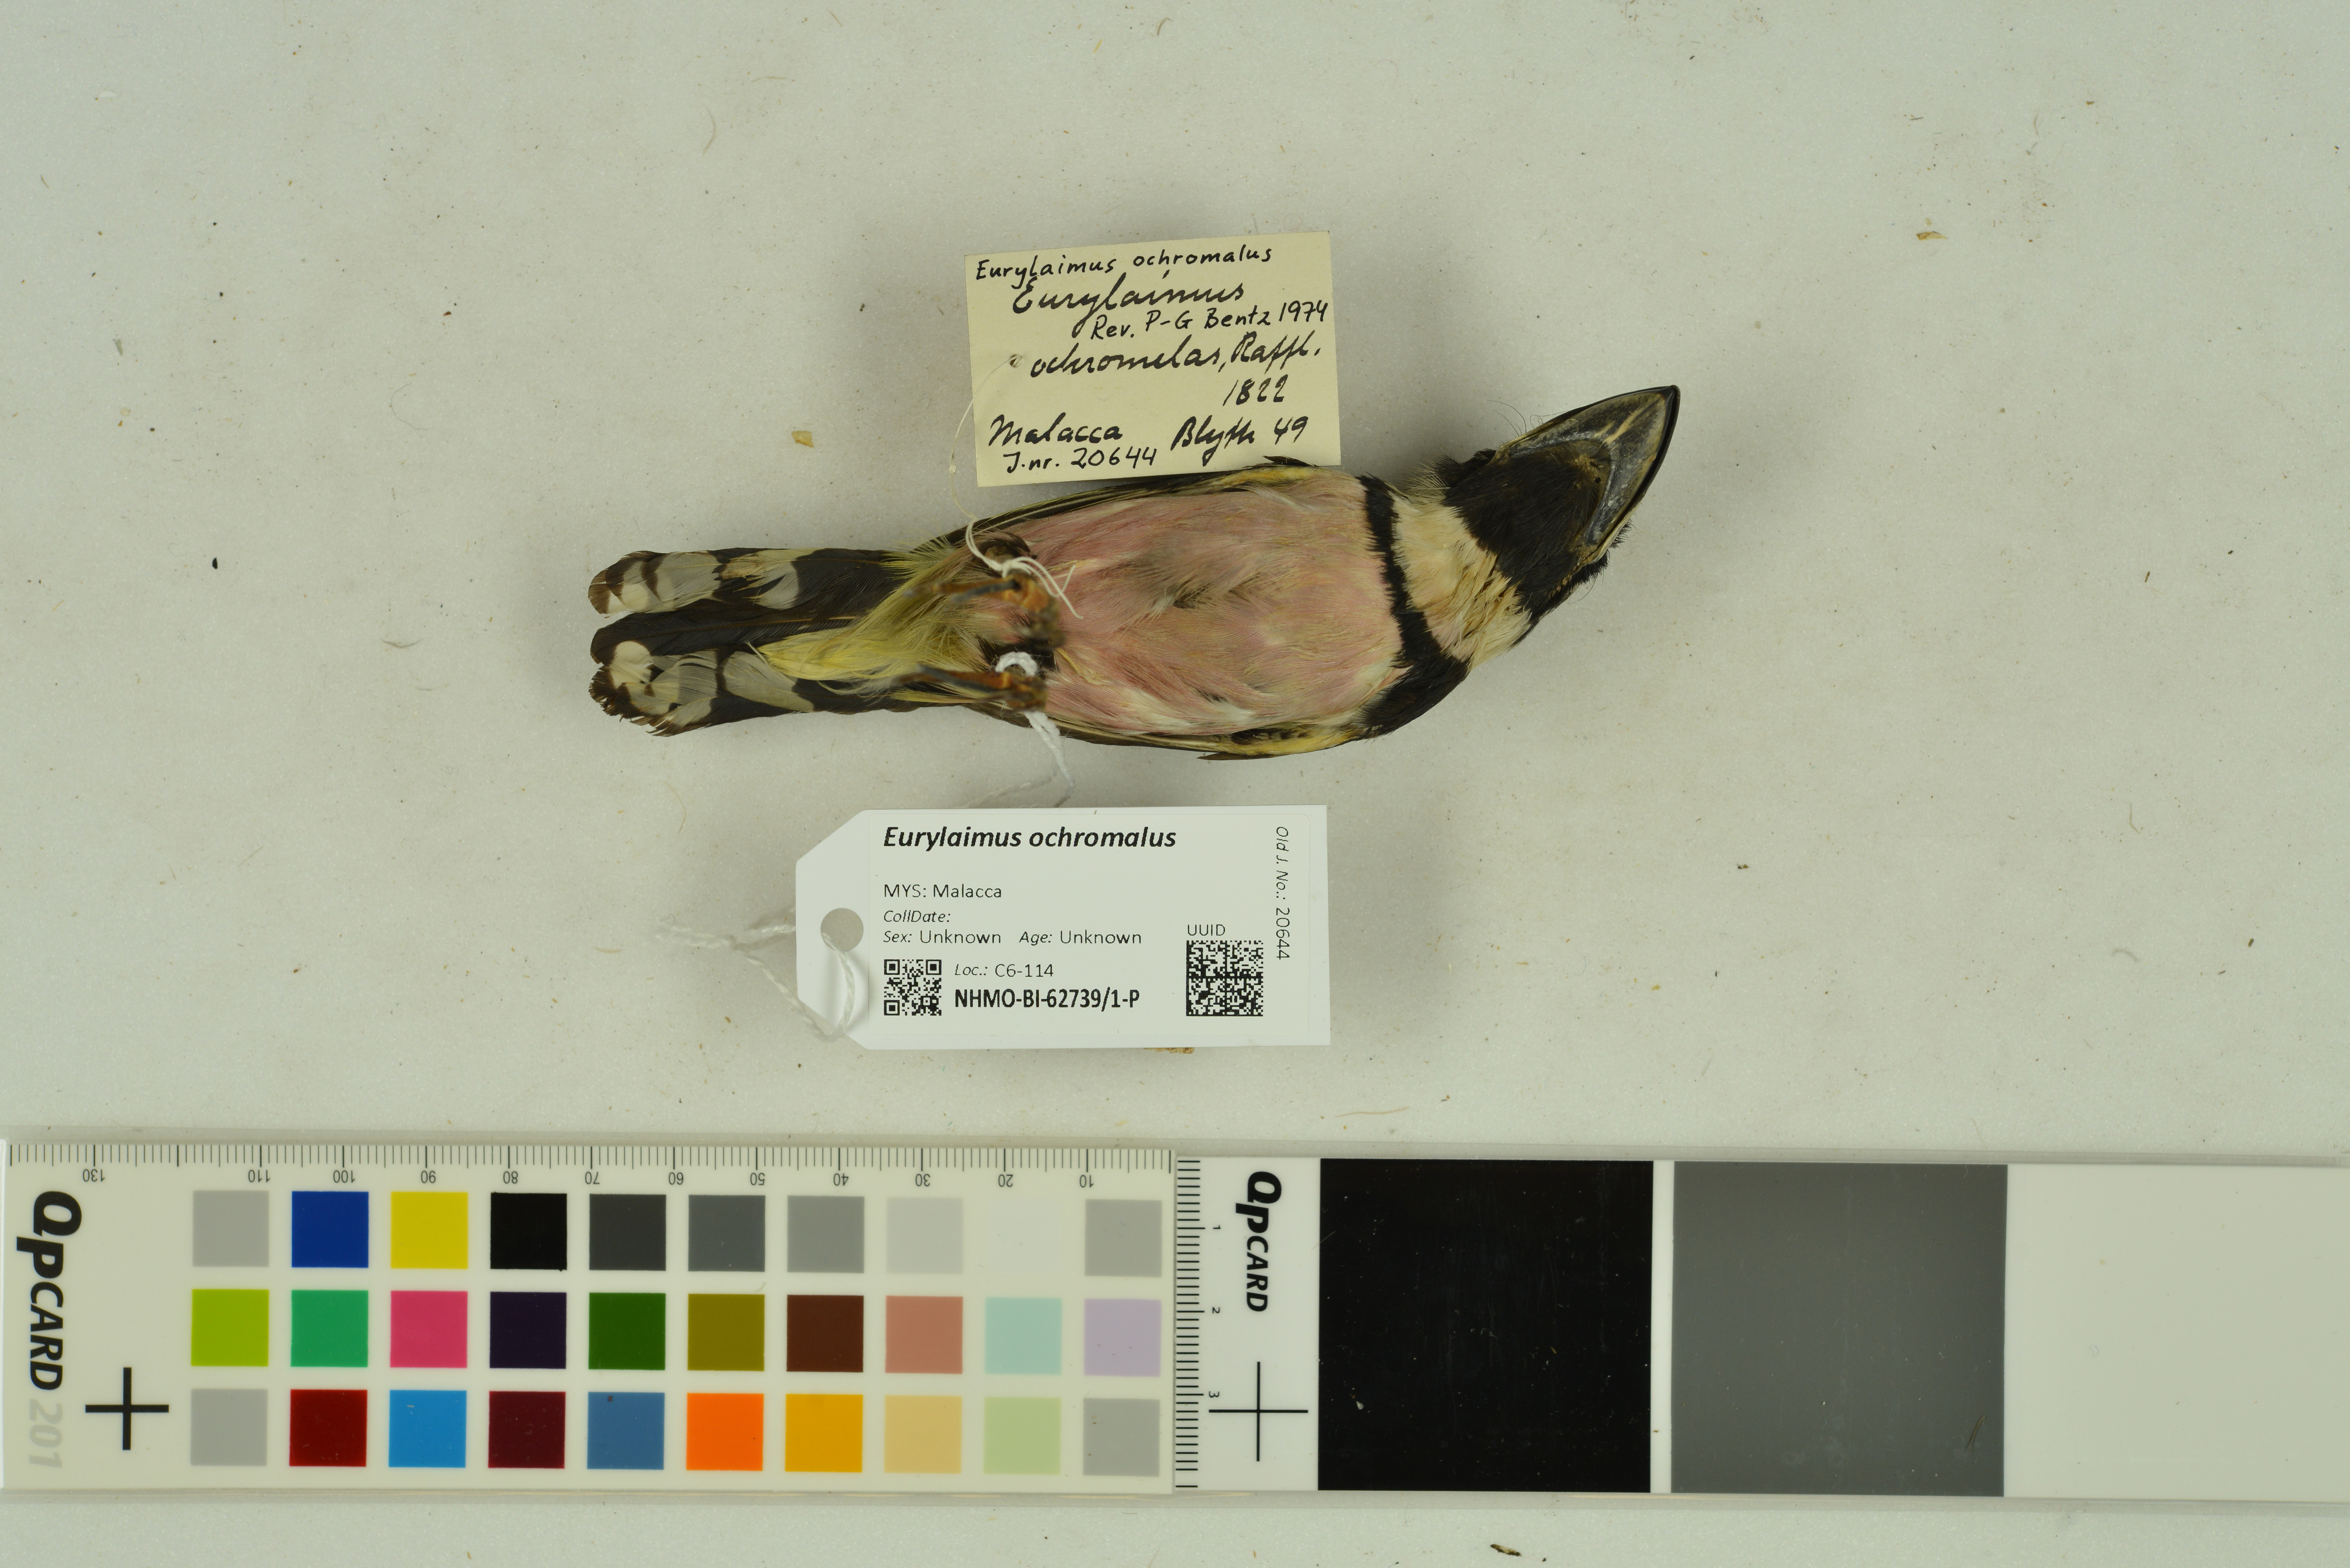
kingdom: Animalia
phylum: Chordata
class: Aves
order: Passeriformes
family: Eurylaimidae
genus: Eurylaimus
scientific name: Eurylaimus ochromalus
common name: Black-and-yellow broadbill
